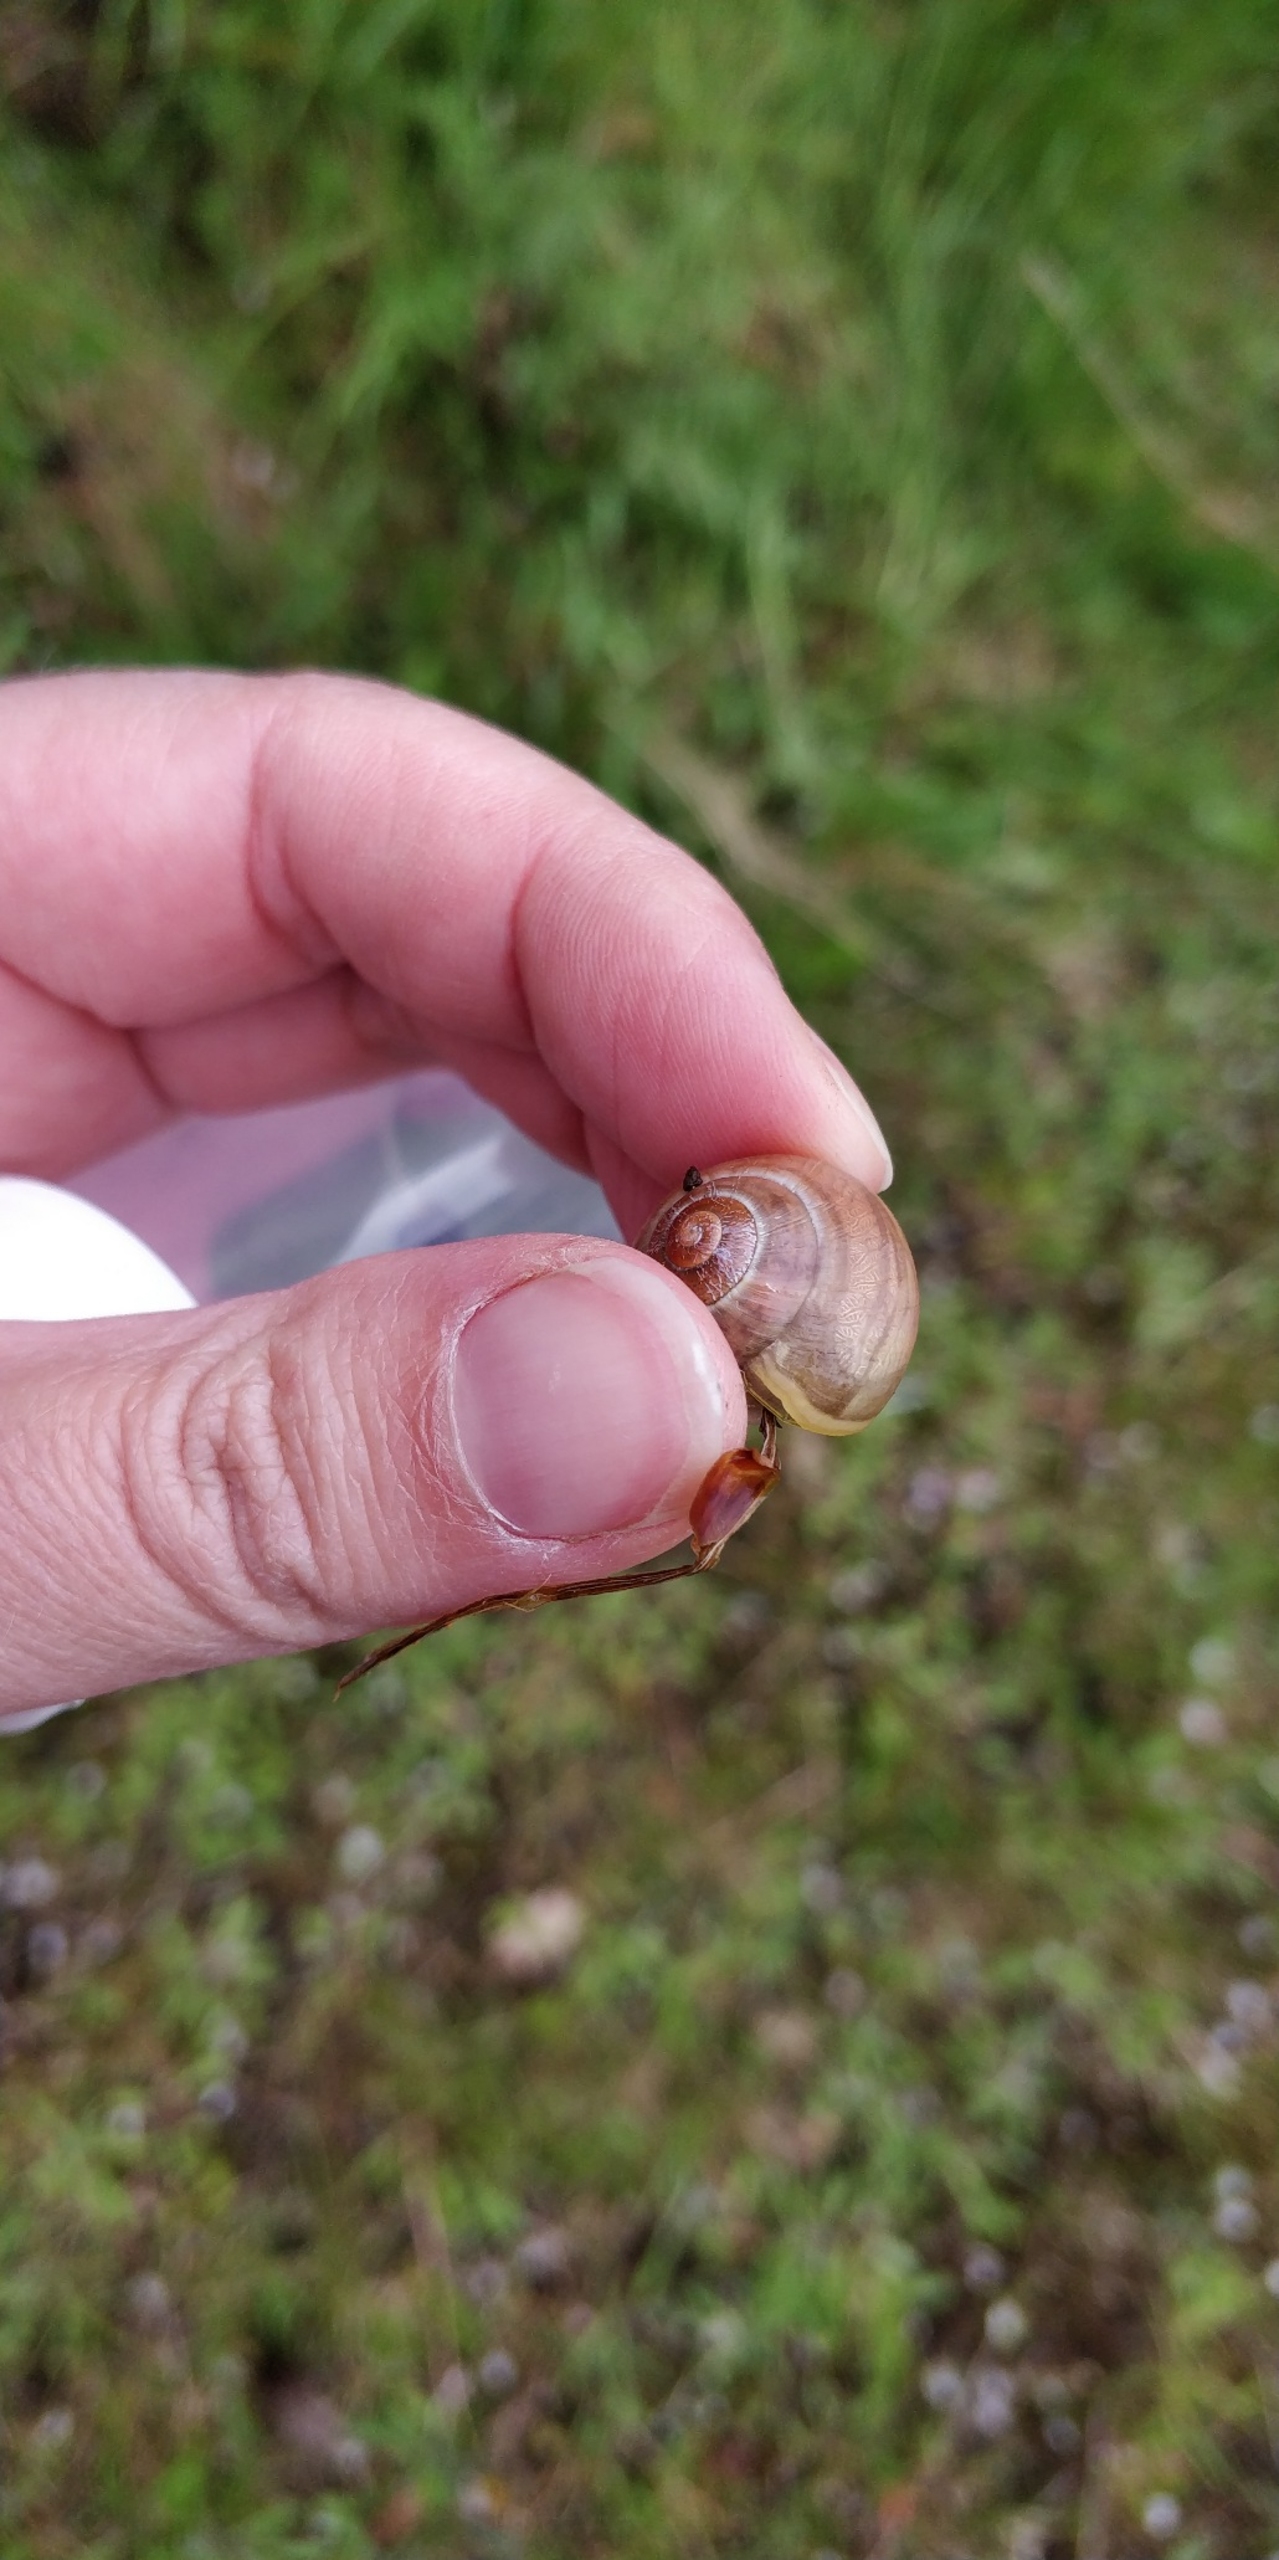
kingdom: Animalia
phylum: Mollusca
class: Gastropoda
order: Stylommatophora
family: Helicidae
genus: Cepaea
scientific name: Cepaea hortensis
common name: Havesnegl
